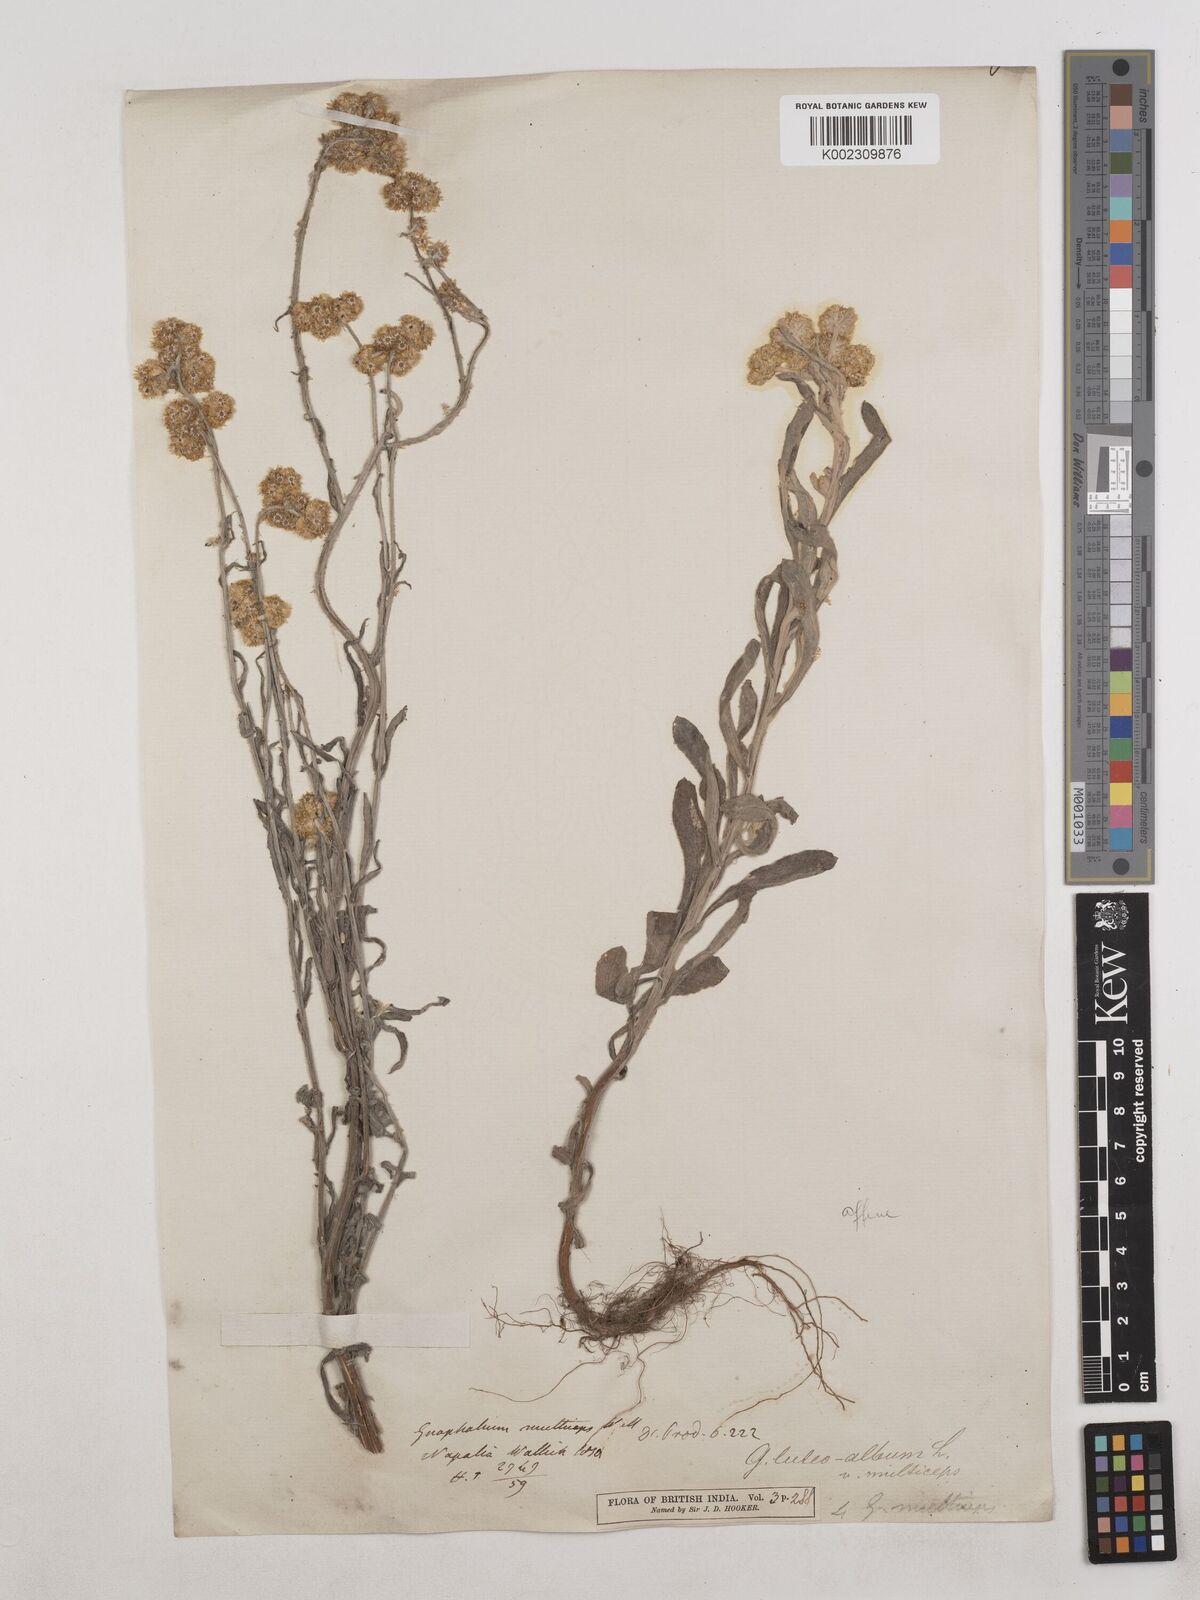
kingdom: Plantae
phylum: Tracheophyta
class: Magnoliopsida
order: Asterales
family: Asteraceae
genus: Pseudognaphalium
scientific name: Pseudognaphalium affine
